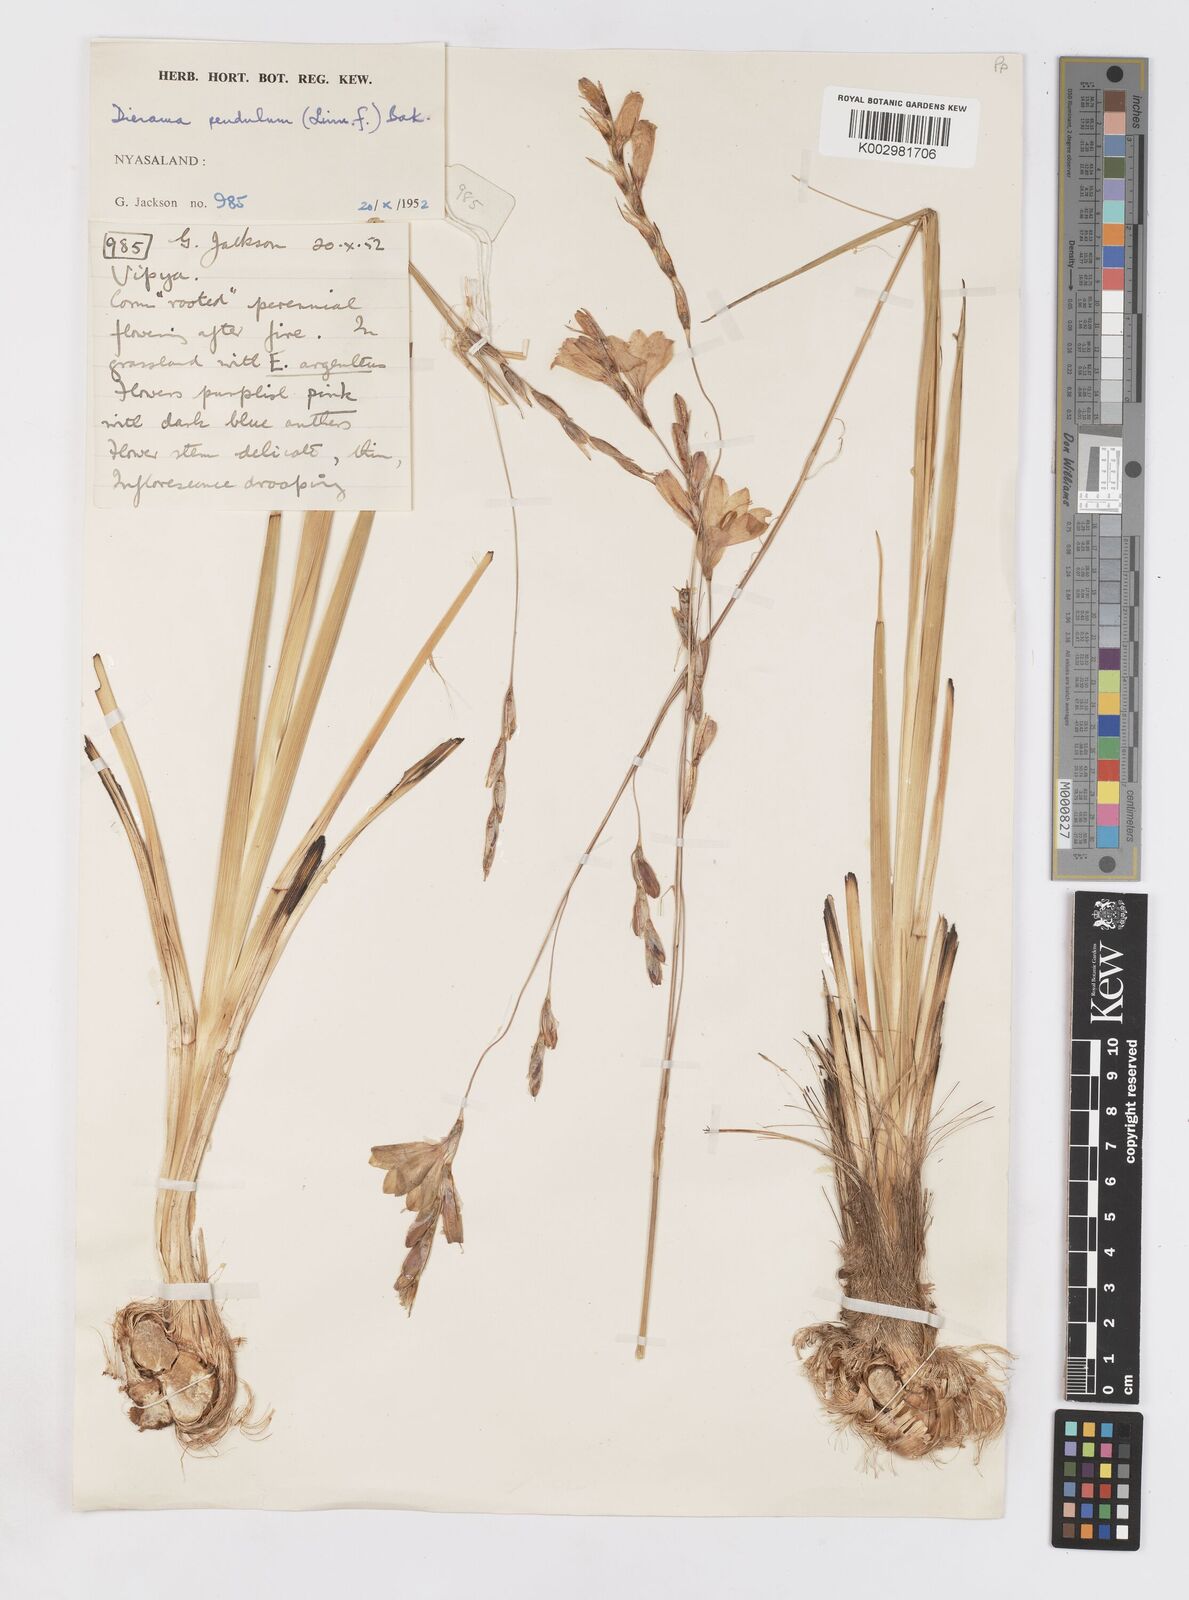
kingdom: Plantae
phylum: Tracheophyta
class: Liliopsida
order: Asparagales
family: Iridaceae
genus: Dierama
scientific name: Dierama cupuliflorum
